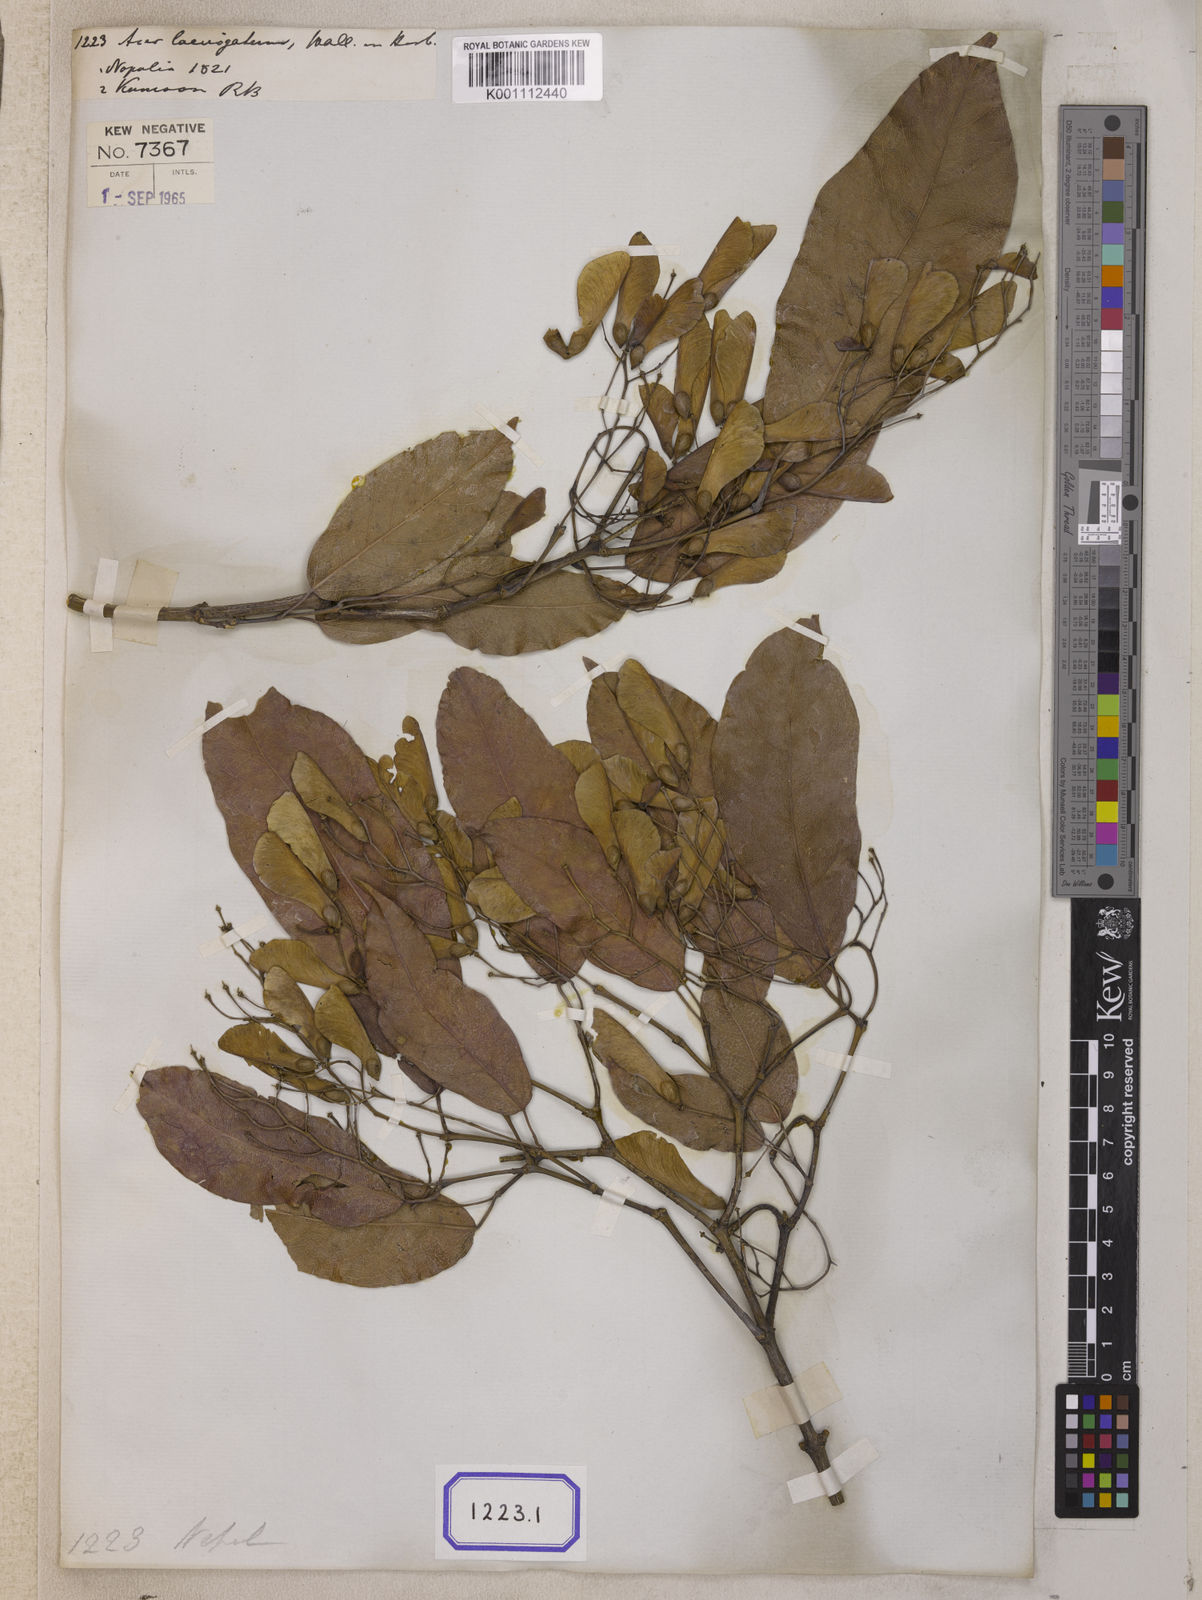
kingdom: Plantae
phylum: Tracheophyta
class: Magnoliopsida
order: Sapindales
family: Sapindaceae
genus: Acer
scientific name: Acer laevigatum
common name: Nepal maple
